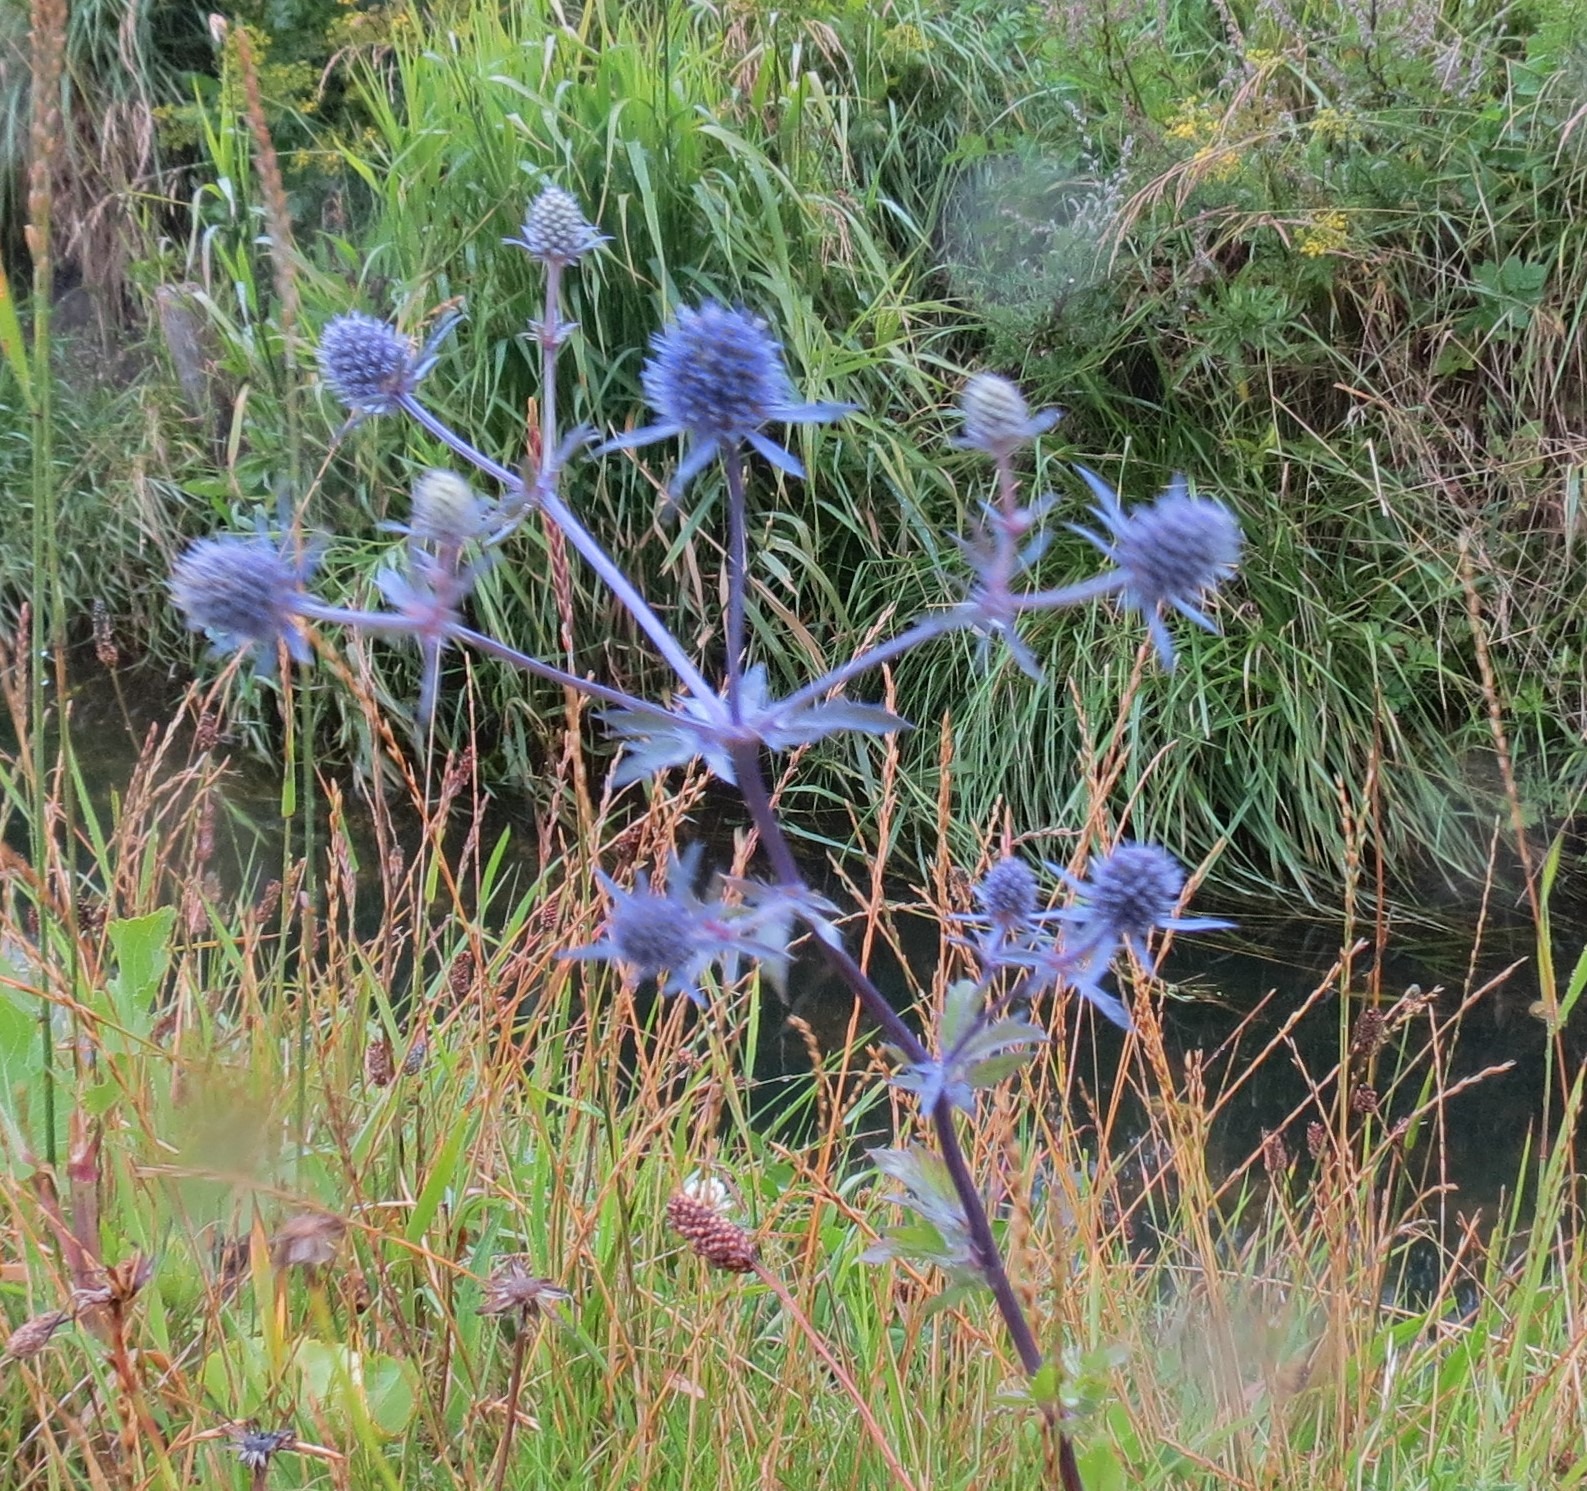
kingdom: Plantae
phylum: Tracheophyta
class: Magnoliopsida
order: Apiales
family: Apiaceae
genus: Eryngium
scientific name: Eryngium planum
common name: Russisk mandstro
